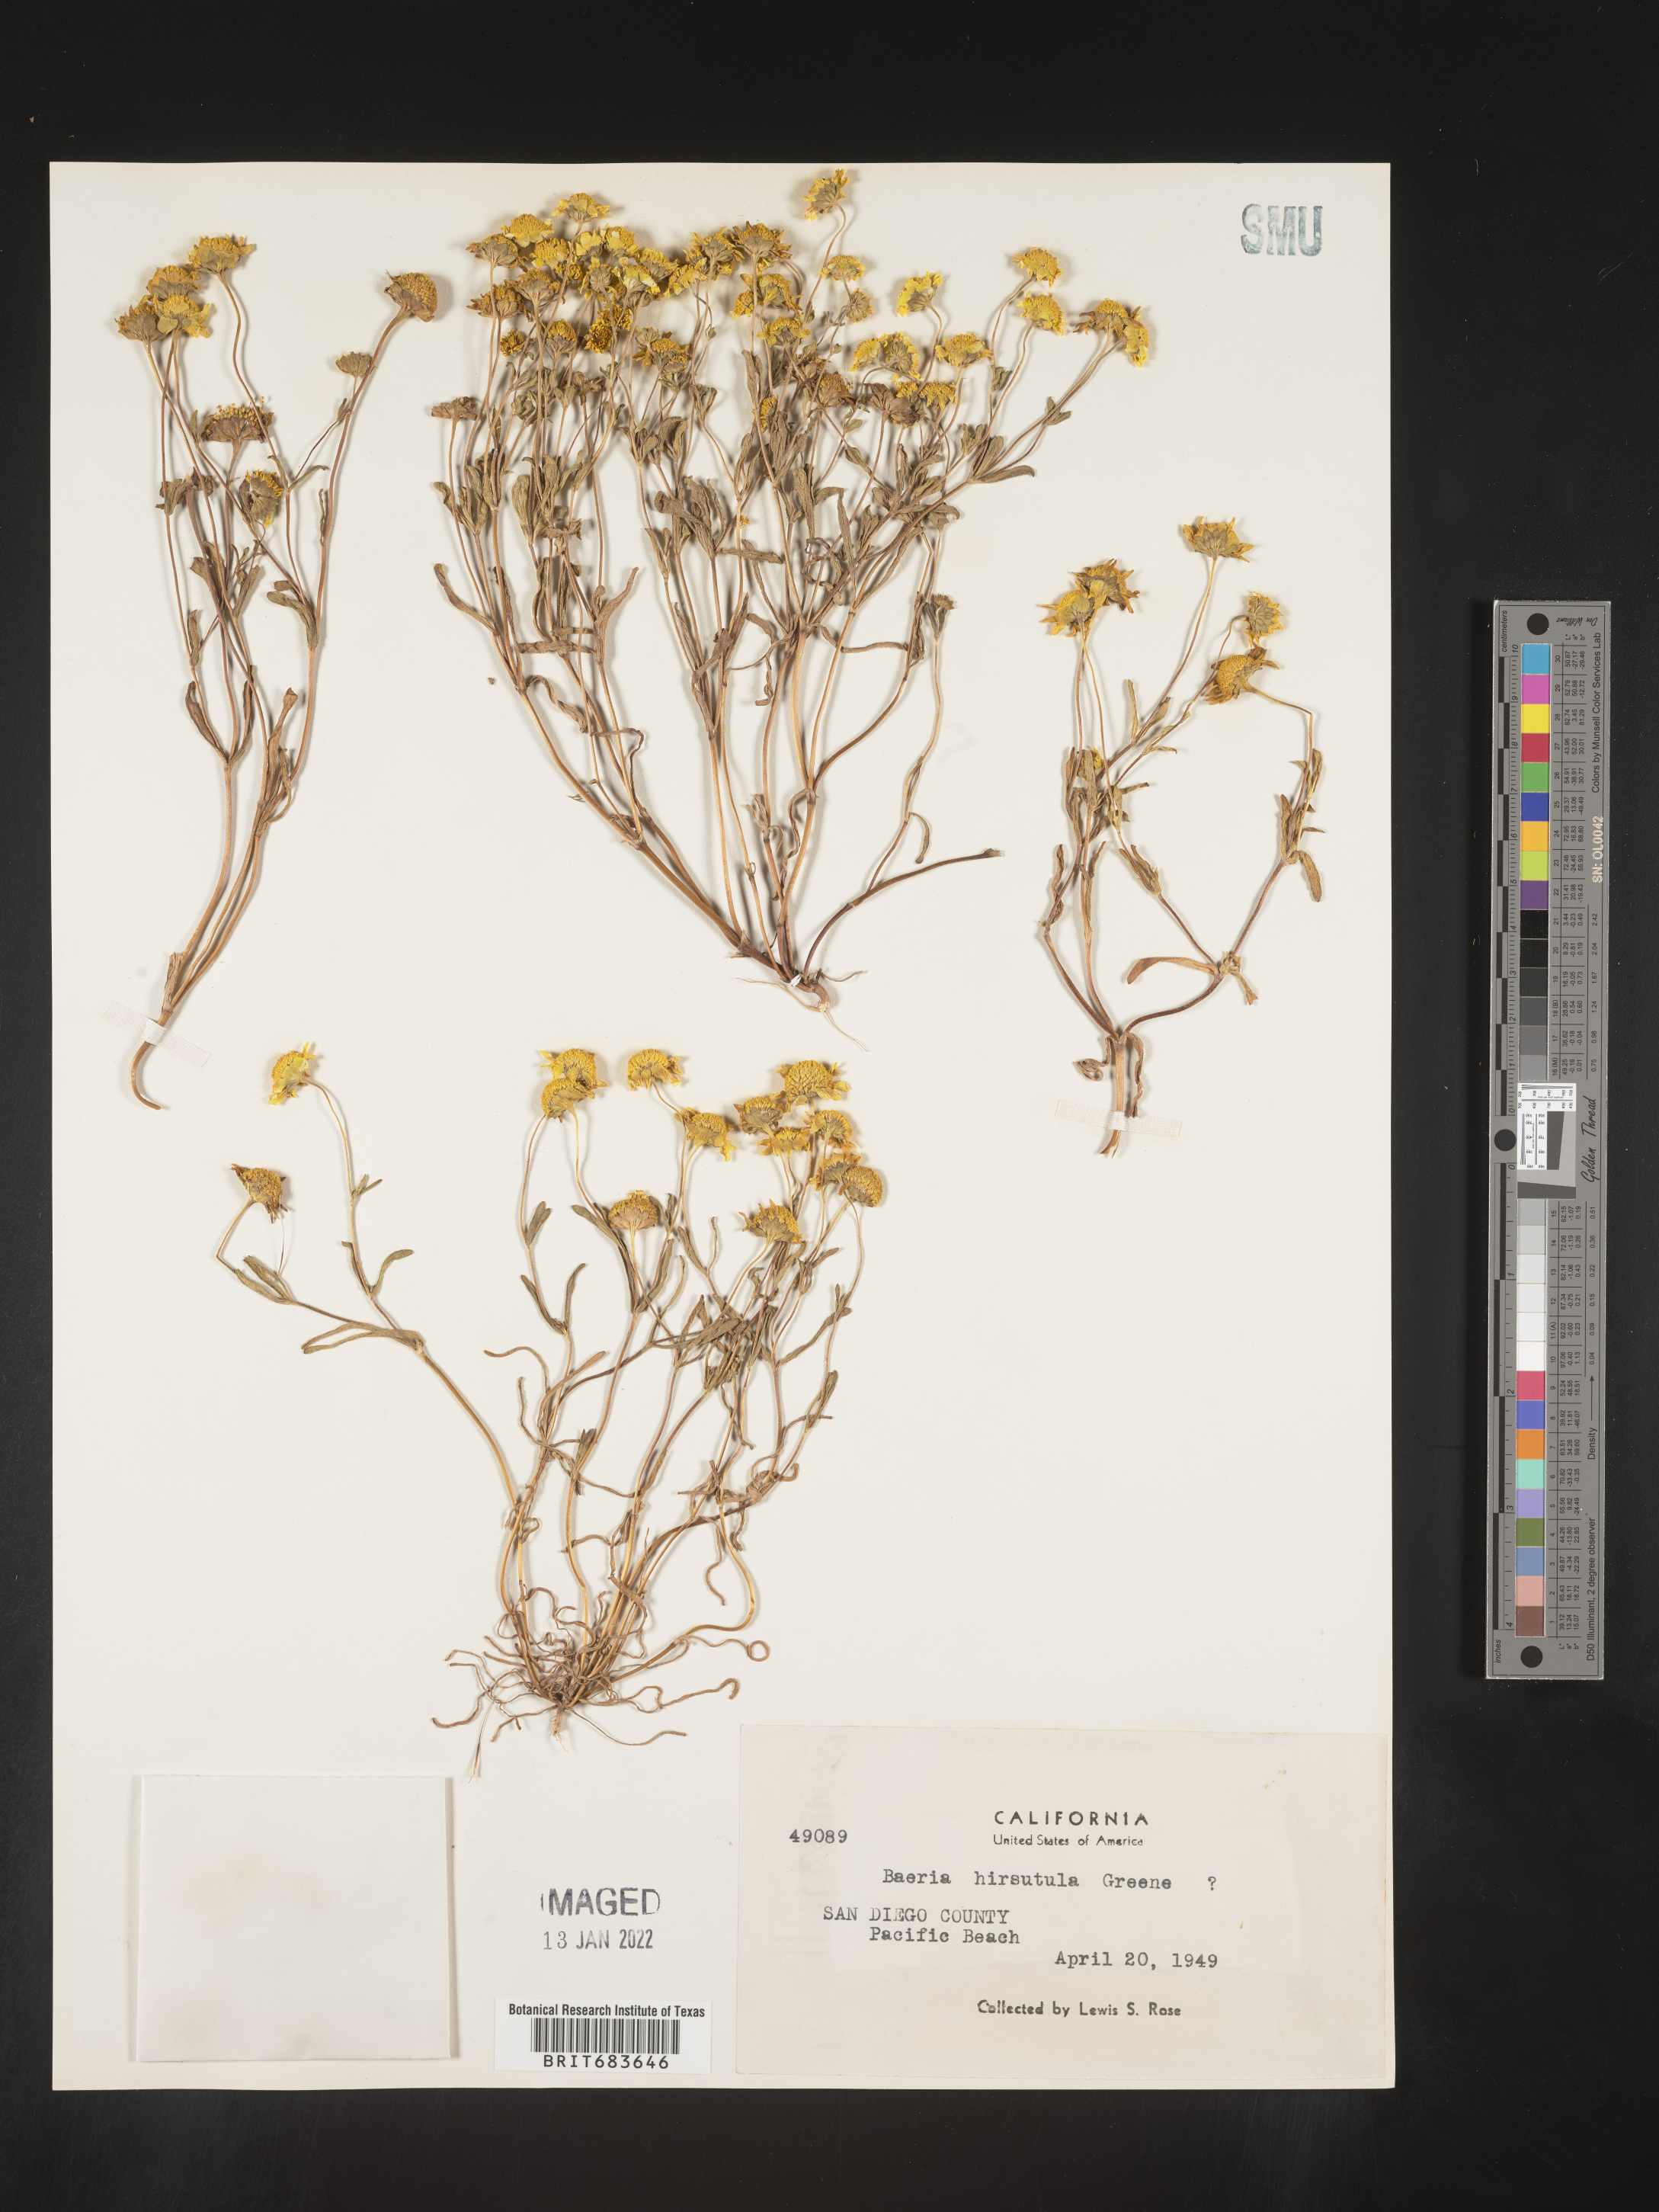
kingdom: Plantae
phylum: Tracheophyta
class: Magnoliopsida
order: Asterales
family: Asteraceae
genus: Lasthenia
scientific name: Lasthenia
